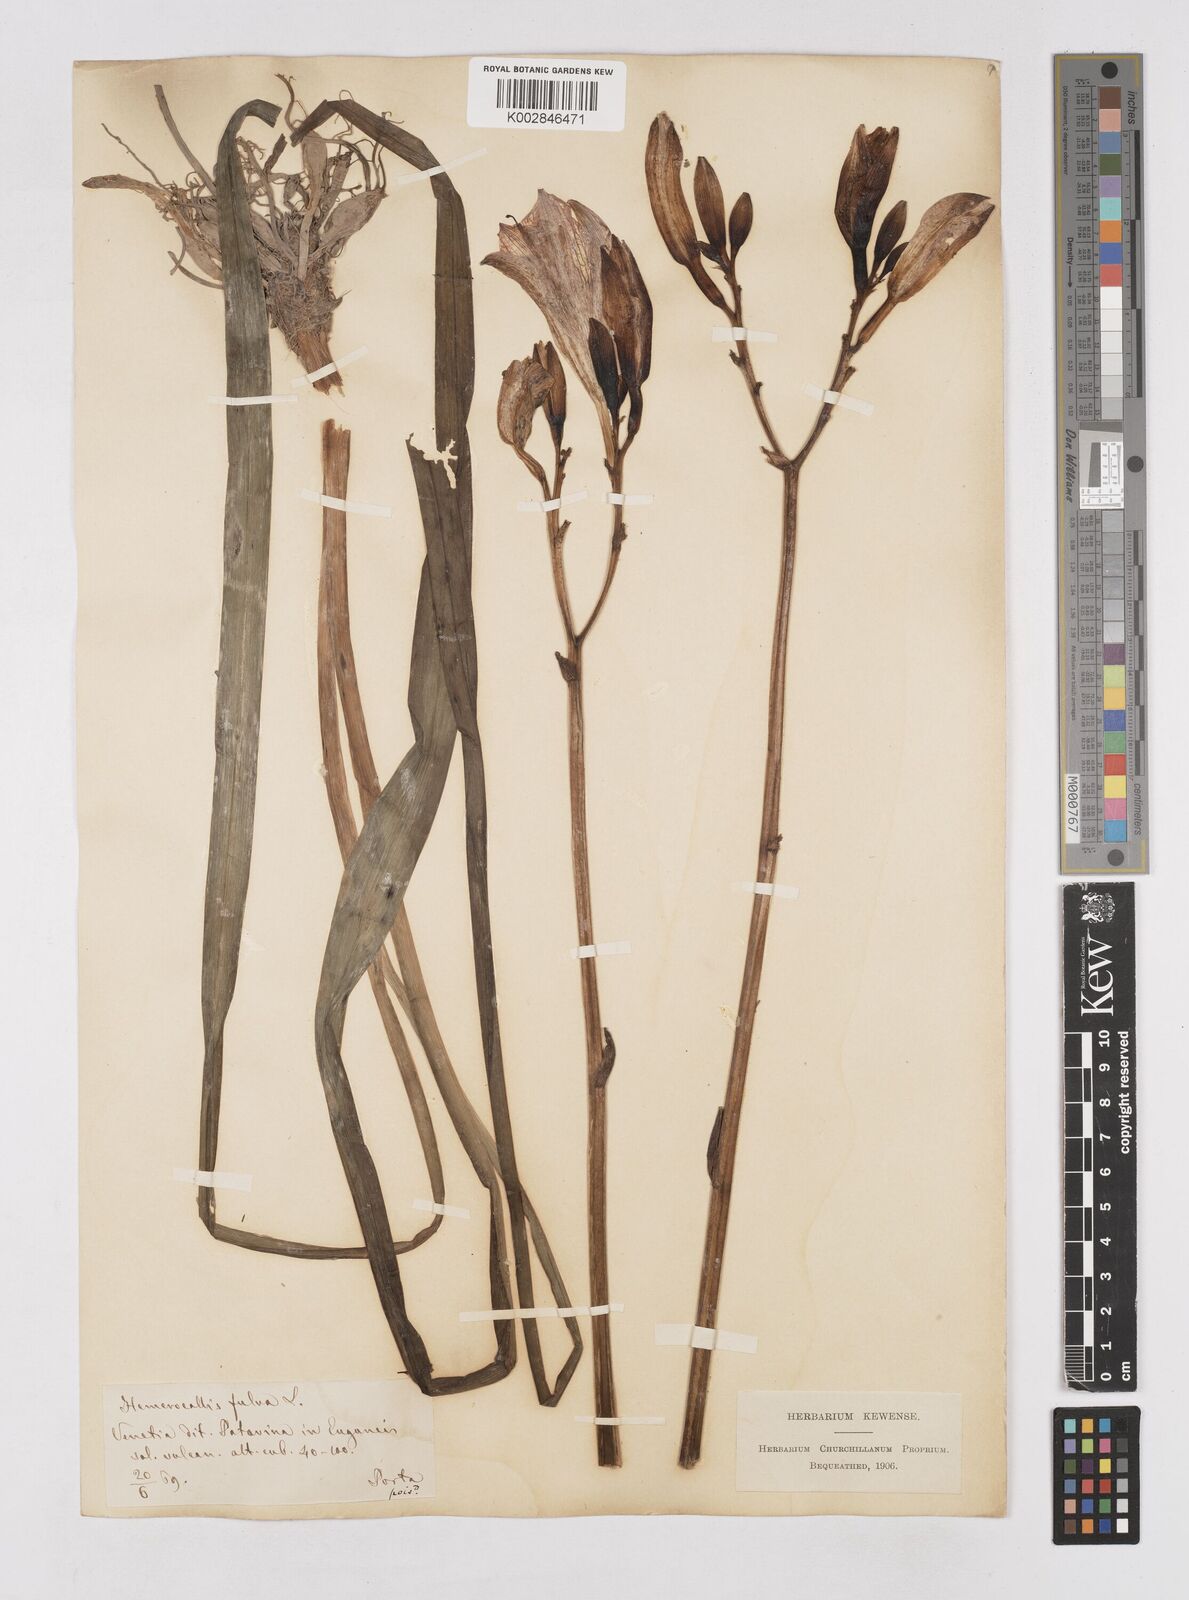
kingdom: Plantae
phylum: Tracheophyta
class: Liliopsida
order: Asparagales
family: Asphodelaceae
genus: Hemerocallis
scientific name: Hemerocallis fulva
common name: Orange day-lily
